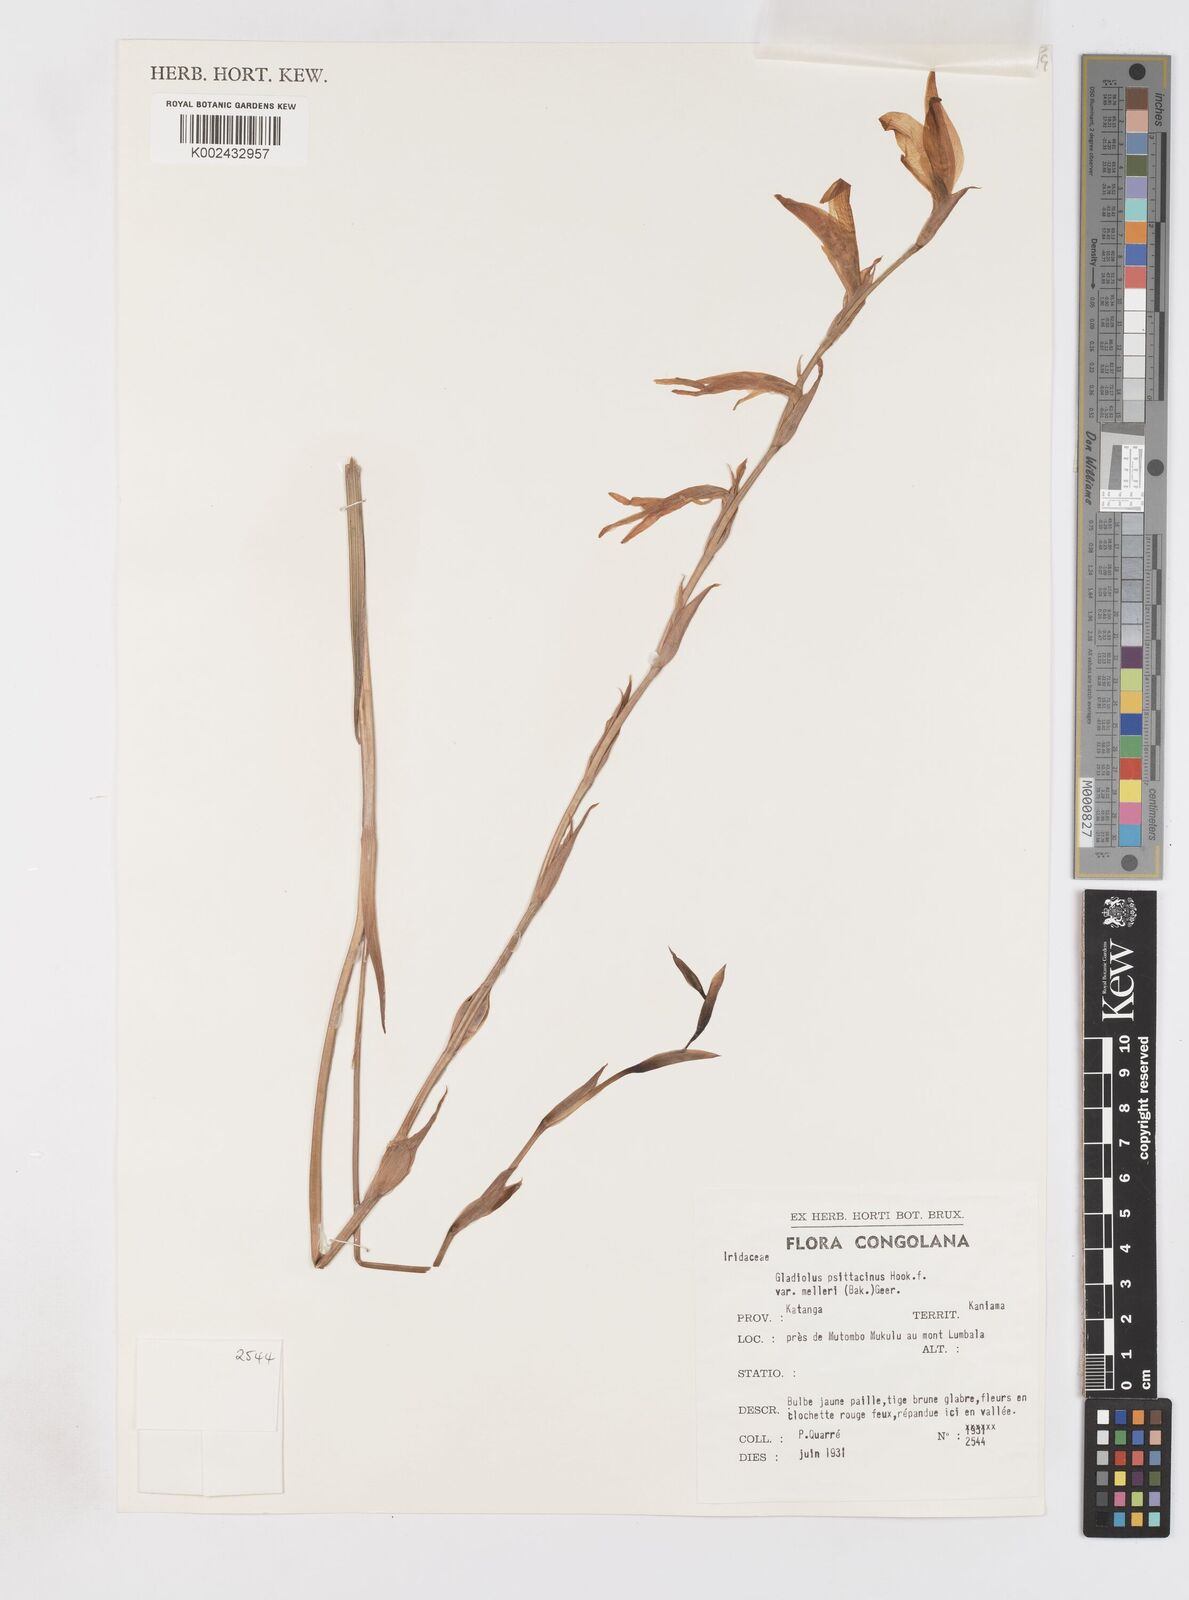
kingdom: Plantae
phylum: Tracheophyta
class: Liliopsida
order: Asparagales
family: Iridaceae
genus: Gladiolus
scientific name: Gladiolus melleri
